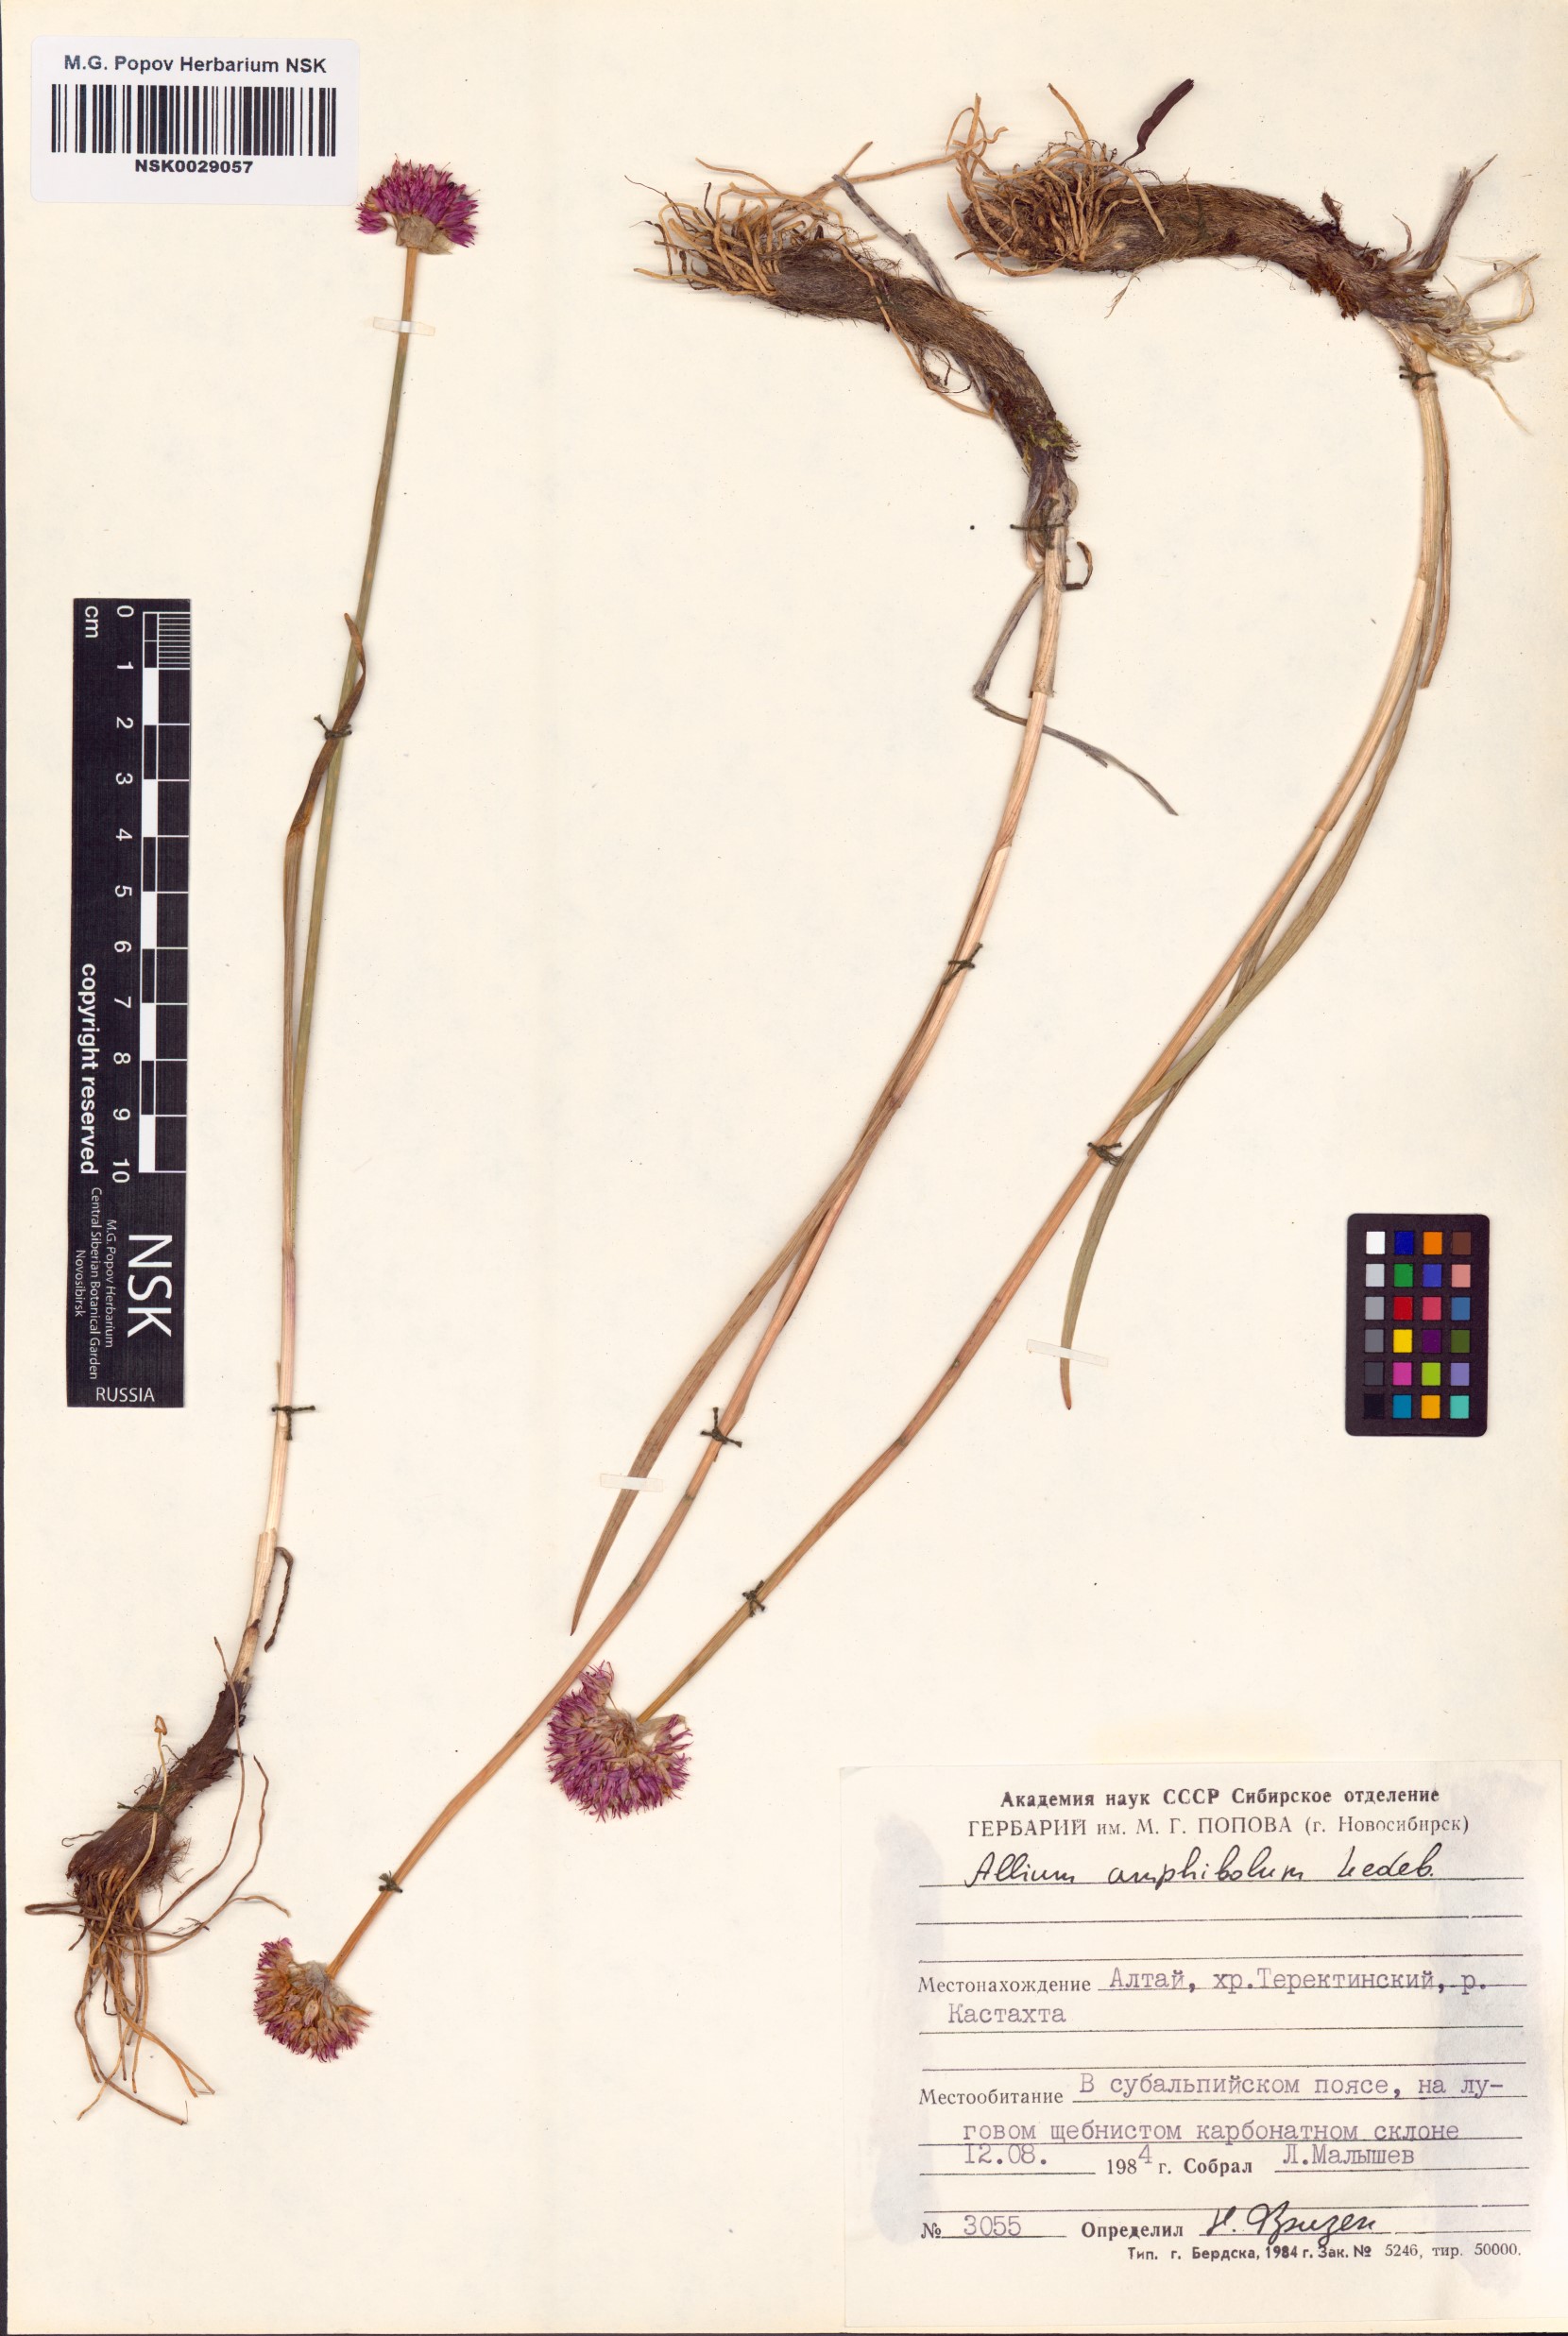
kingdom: Plantae
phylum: Tracheophyta
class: Liliopsida
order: Asparagales
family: Amaryllidaceae
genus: Allium
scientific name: Allium amphibolum
